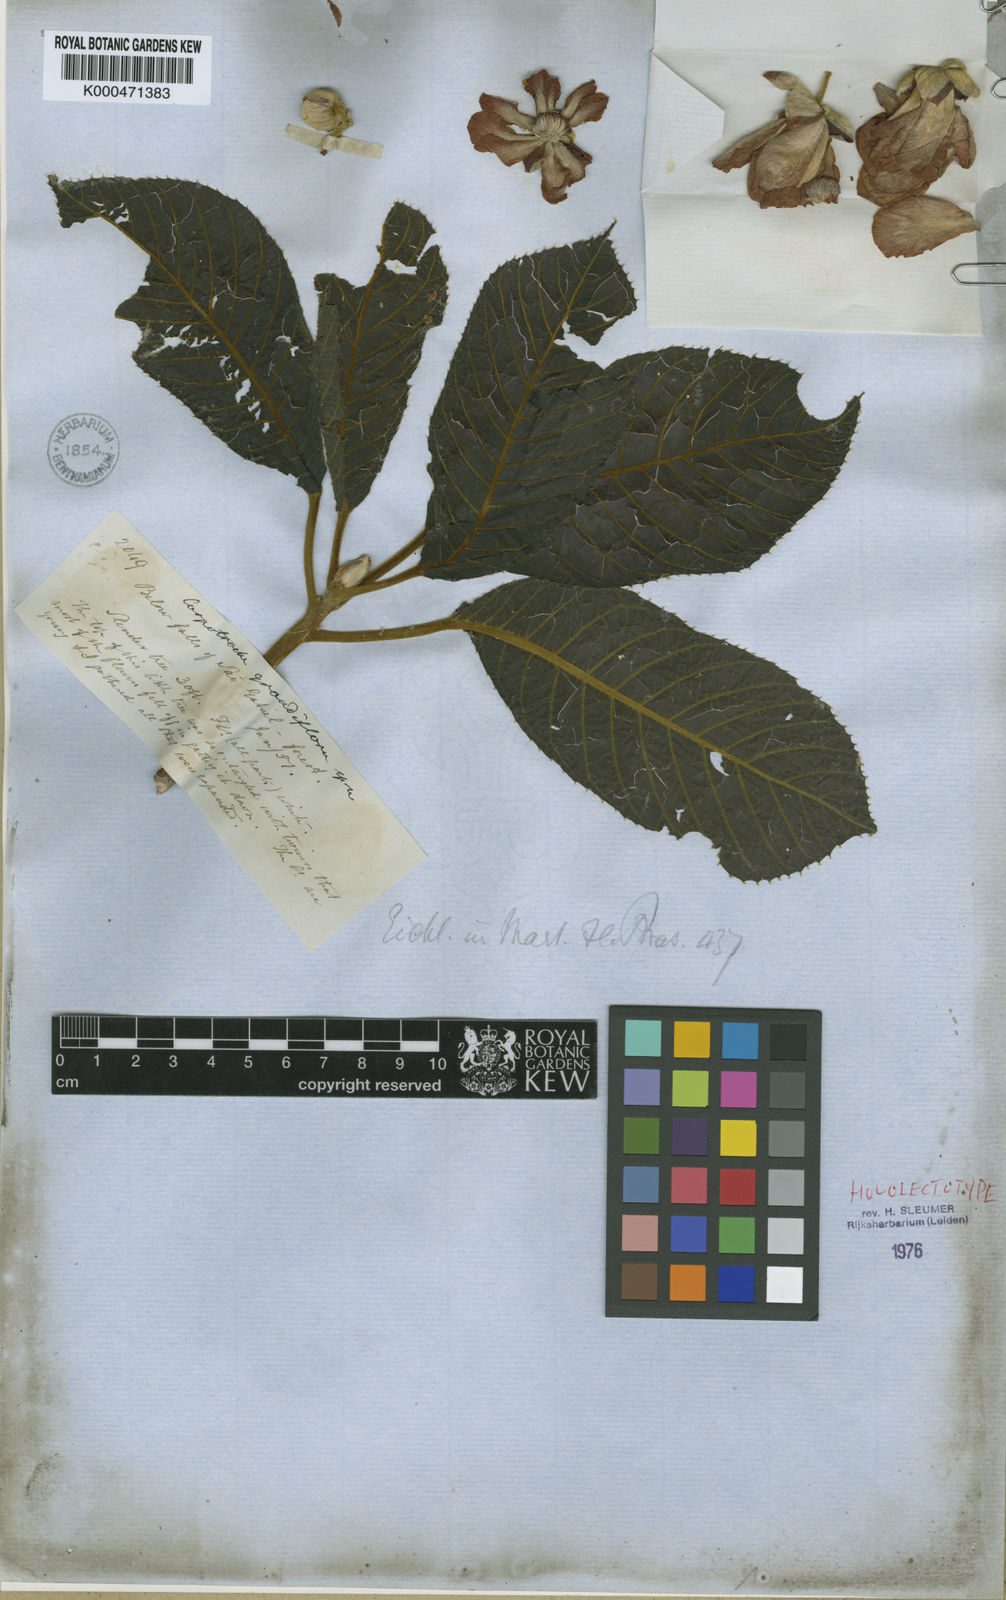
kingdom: Plantae
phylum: Tracheophyta
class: Magnoliopsida
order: Malpighiales
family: Achariaceae
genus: Carpotroche
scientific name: Carpotroche
